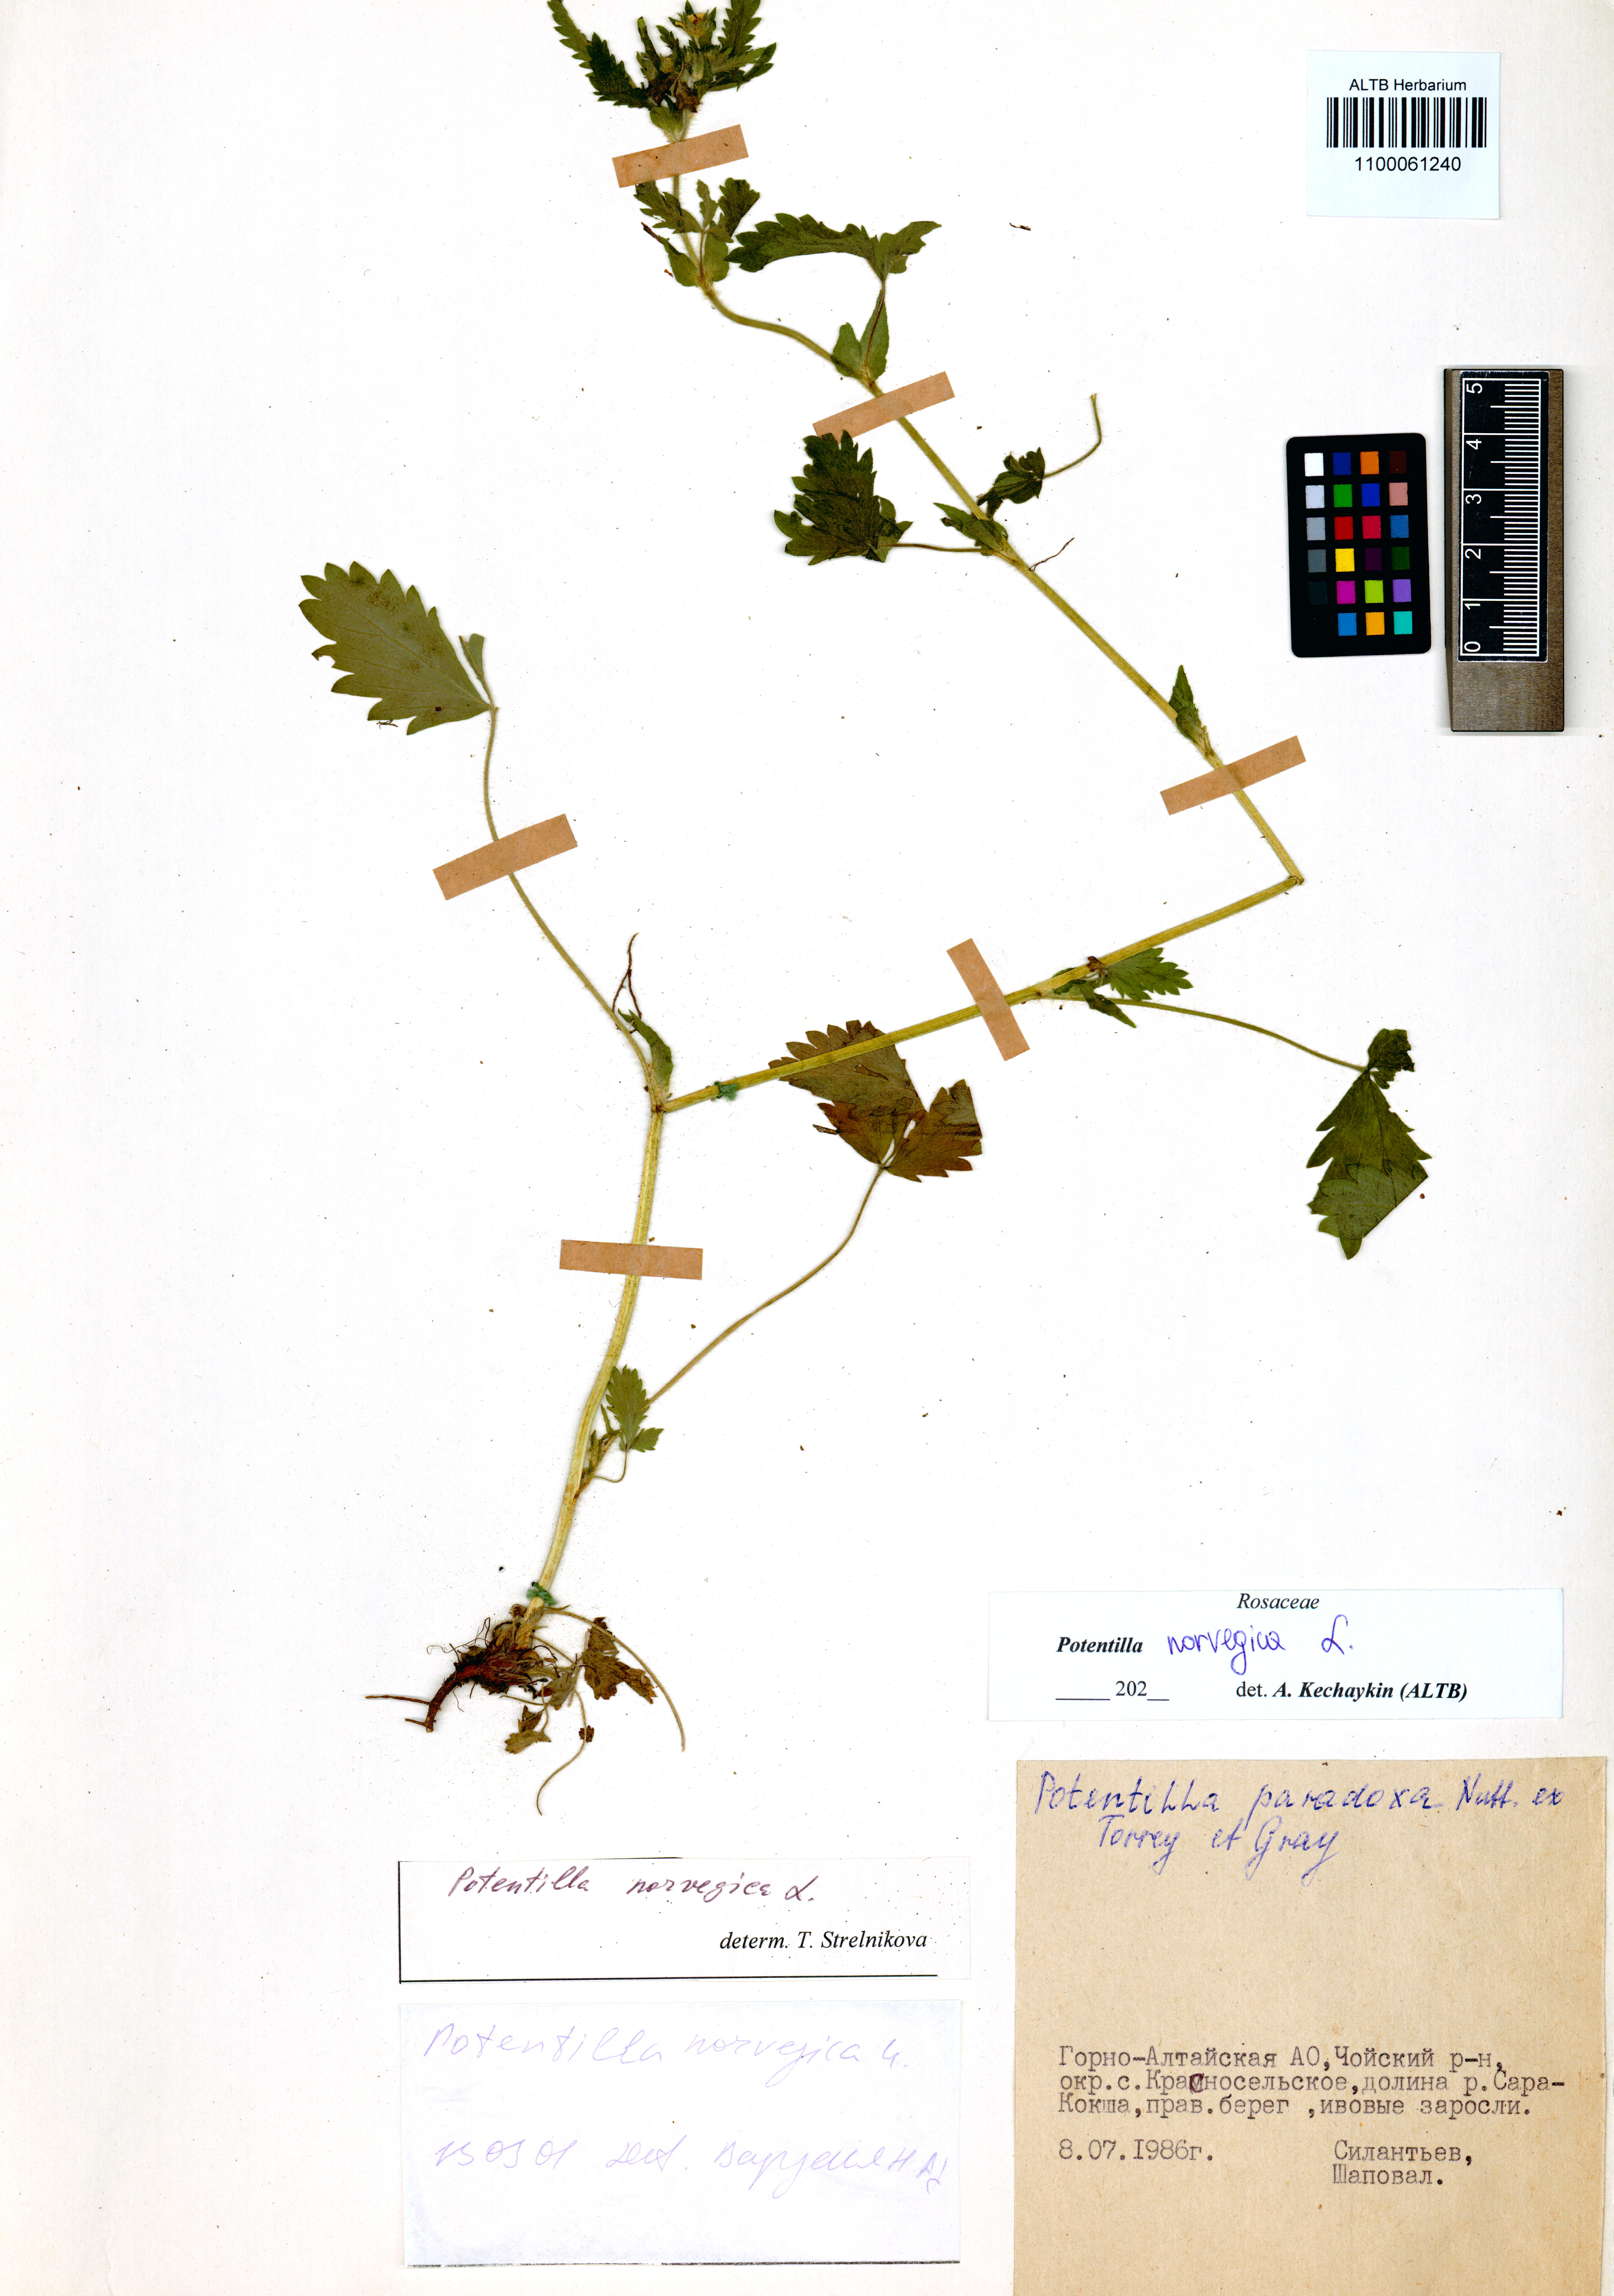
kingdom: Plantae
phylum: Tracheophyta
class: Magnoliopsida
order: Rosales
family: Rosaceae
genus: Potentilla
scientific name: Potentilla norvegica
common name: Ternate-leaved cinquefoil
